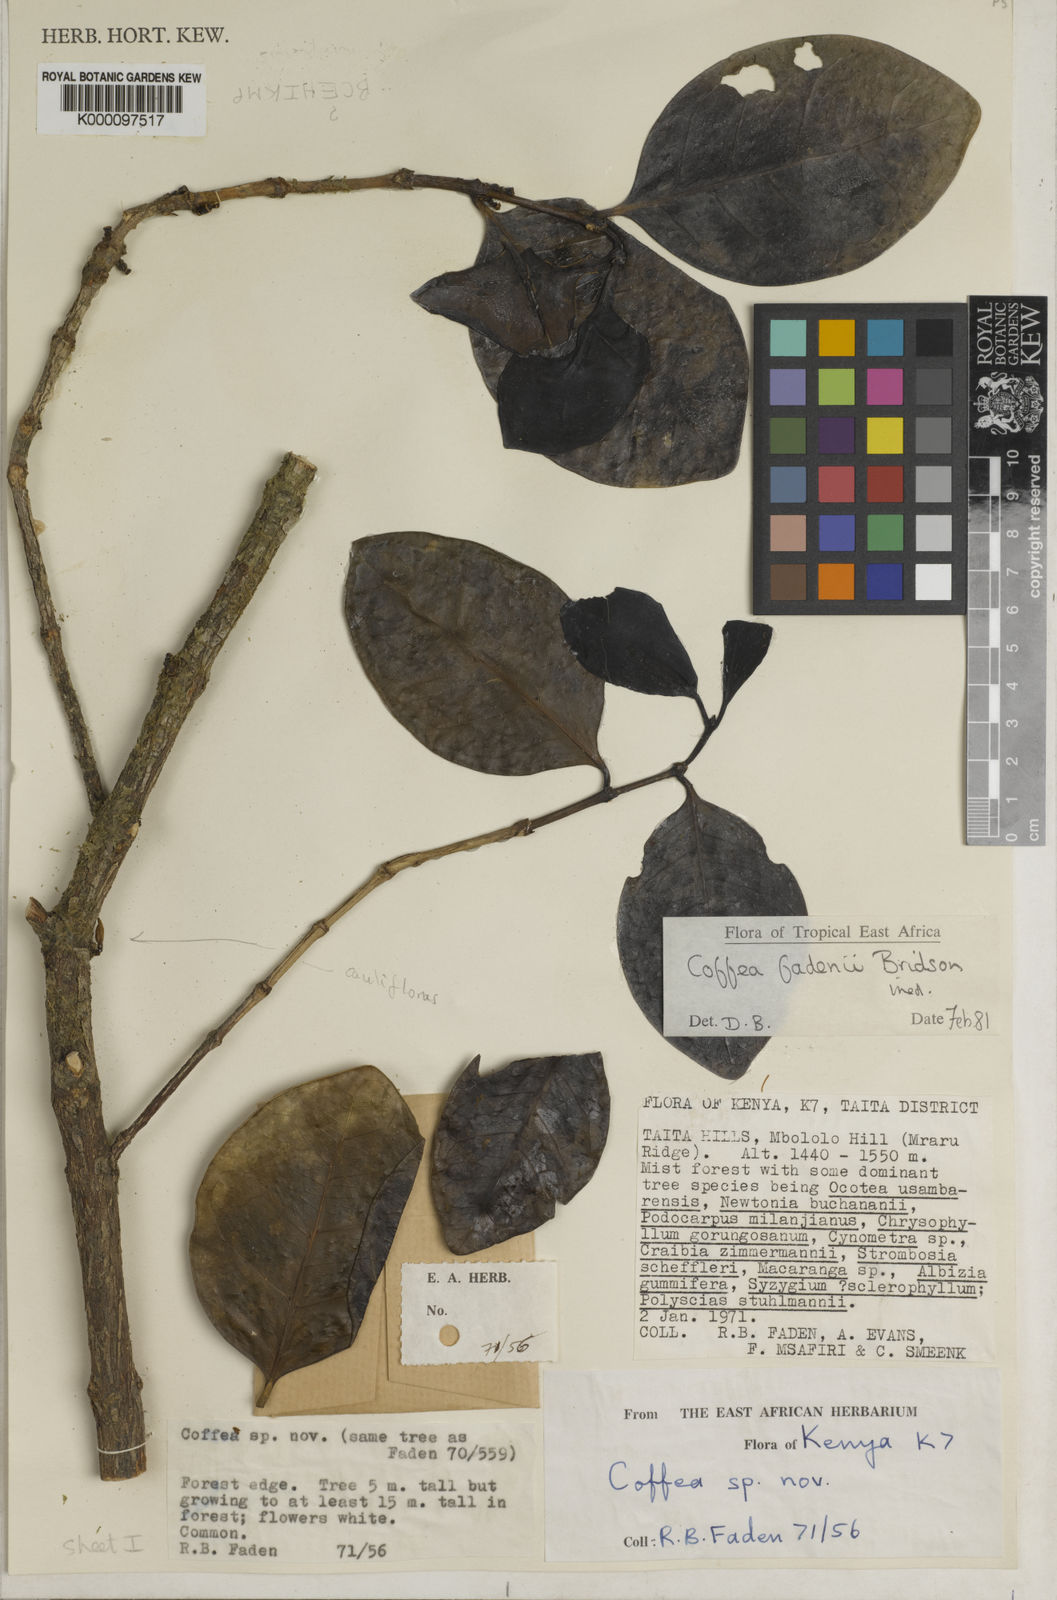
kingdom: Plantae
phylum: Tracheophyta
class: Magnoliopsida
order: Gentianales
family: Rubiaceae
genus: Coffea
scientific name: Coffea fadenii
